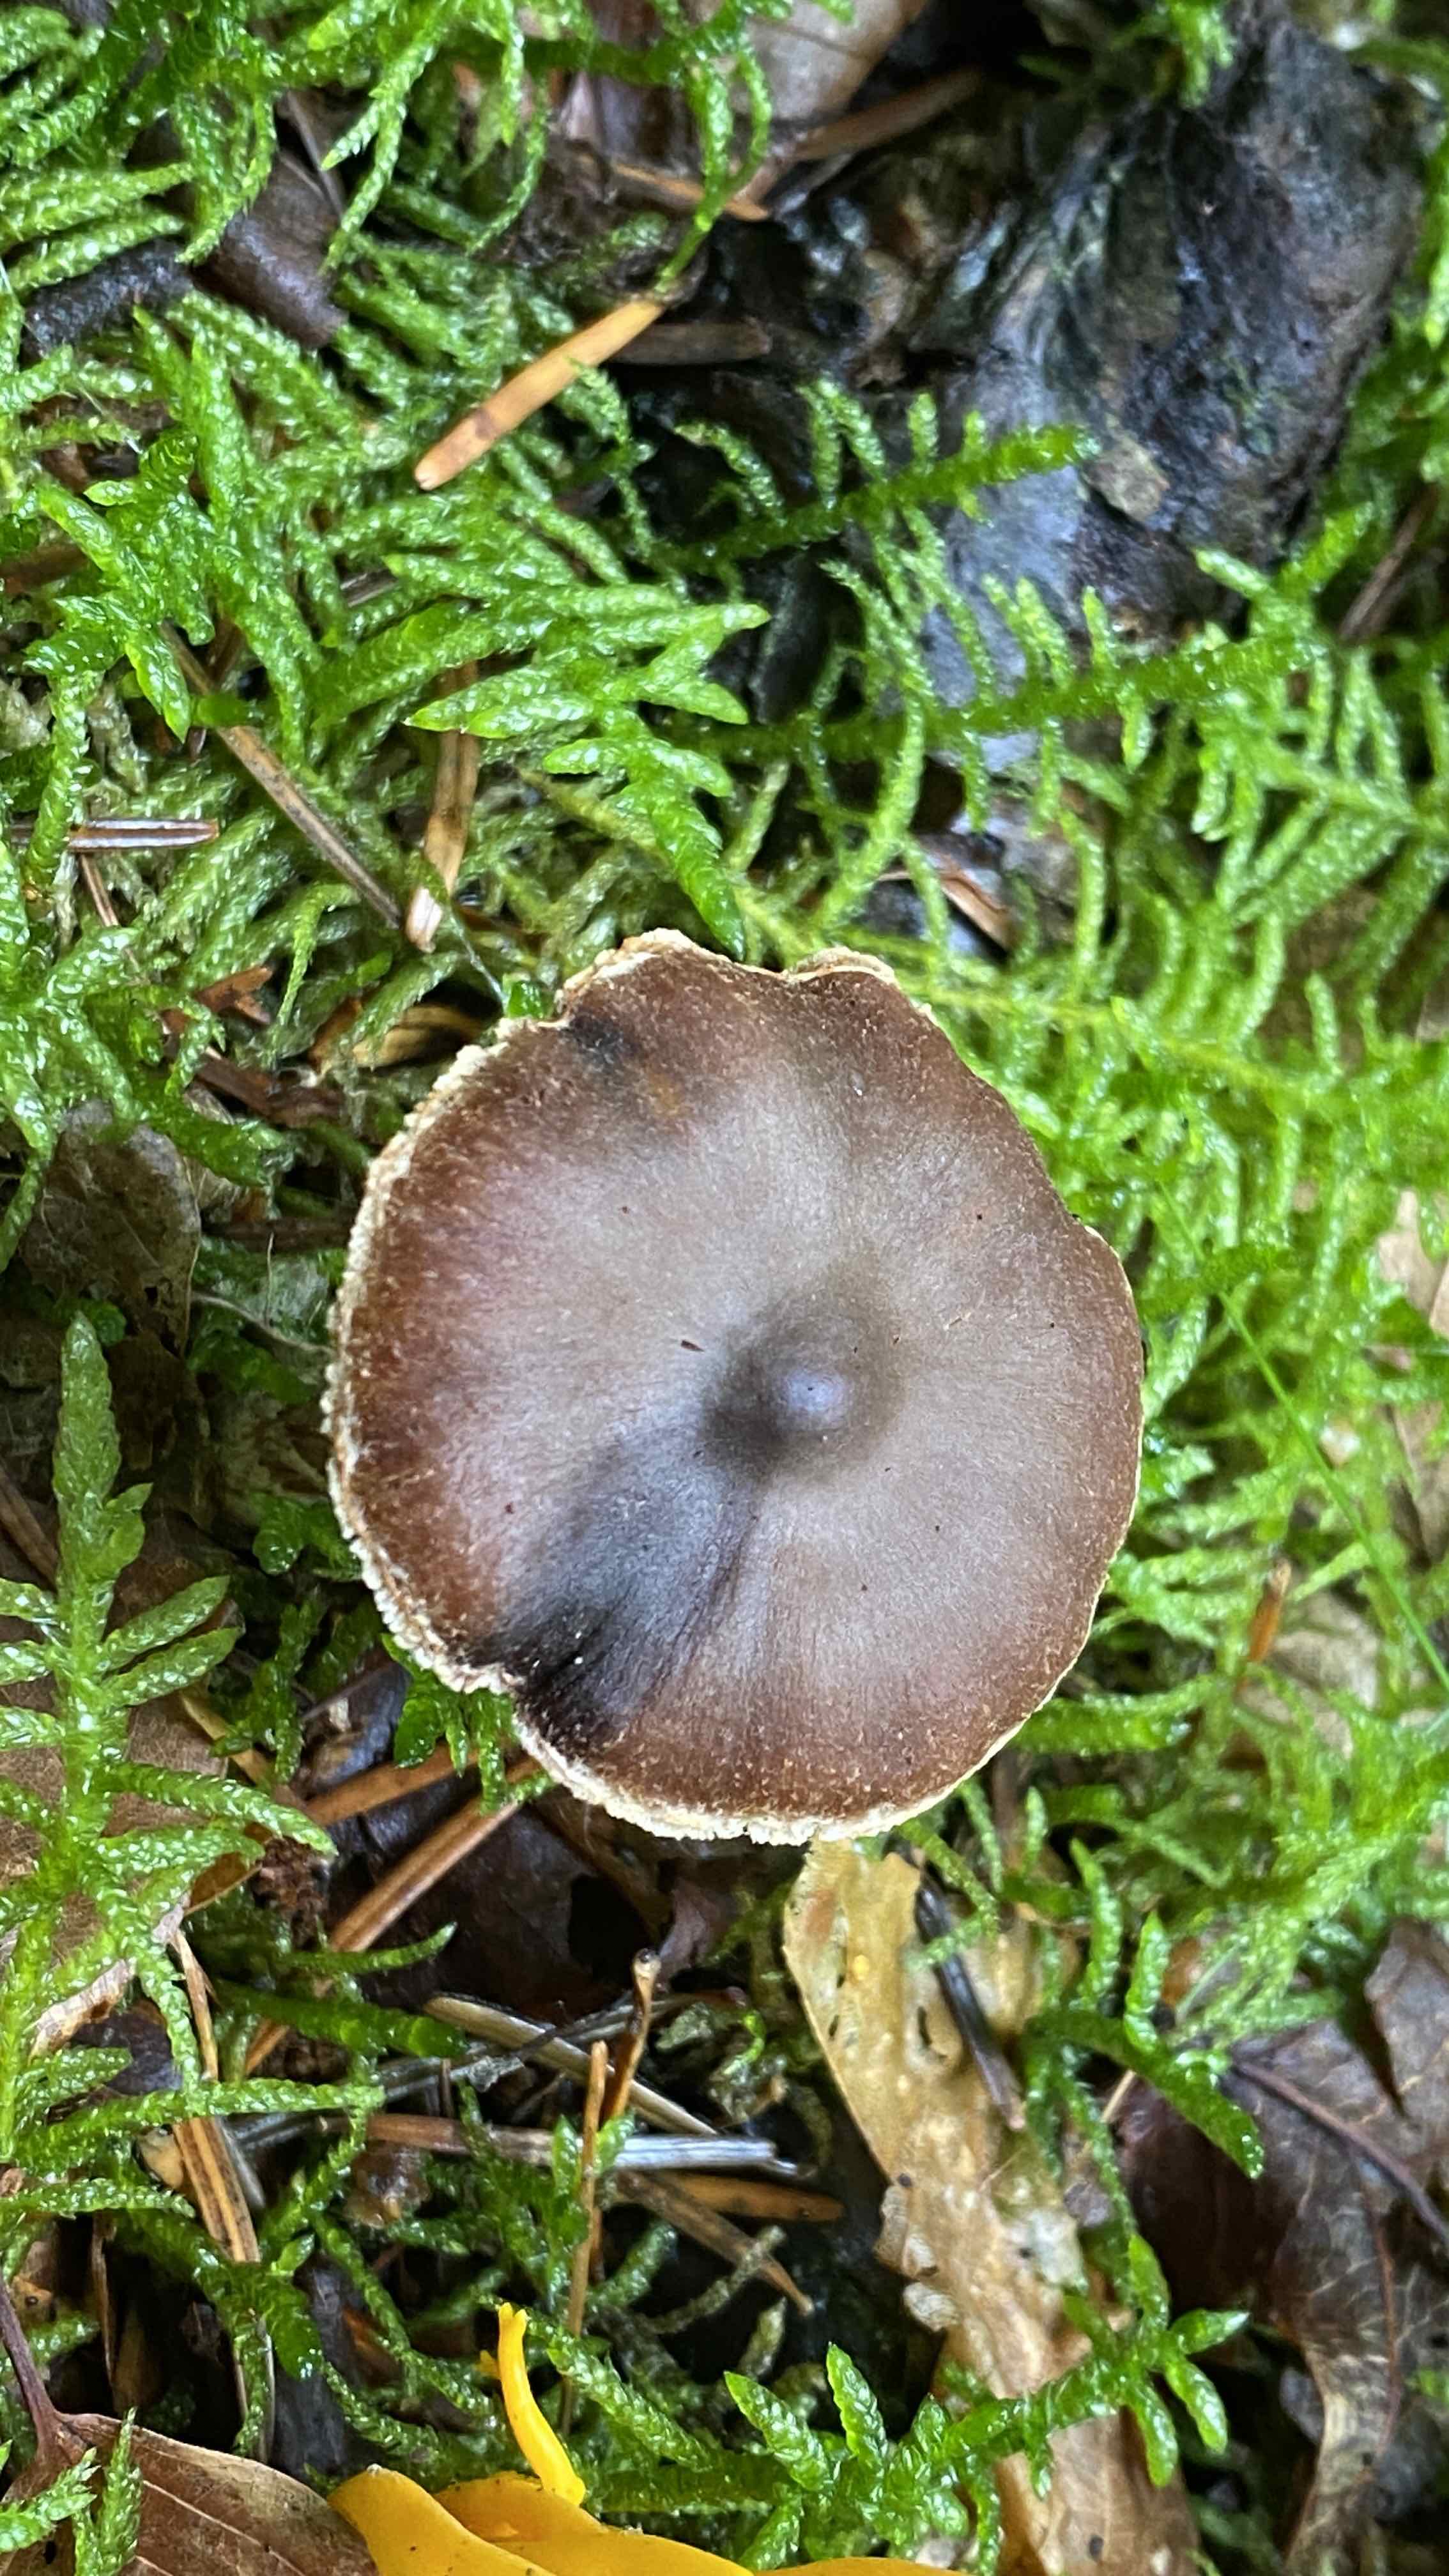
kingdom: Fungi
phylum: Basidiomycota
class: Agaricomycetes
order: Agaricales
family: Cortinariaceae
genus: Cortinarius
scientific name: Cortinarius umbrinolens
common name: mørk slørhat
